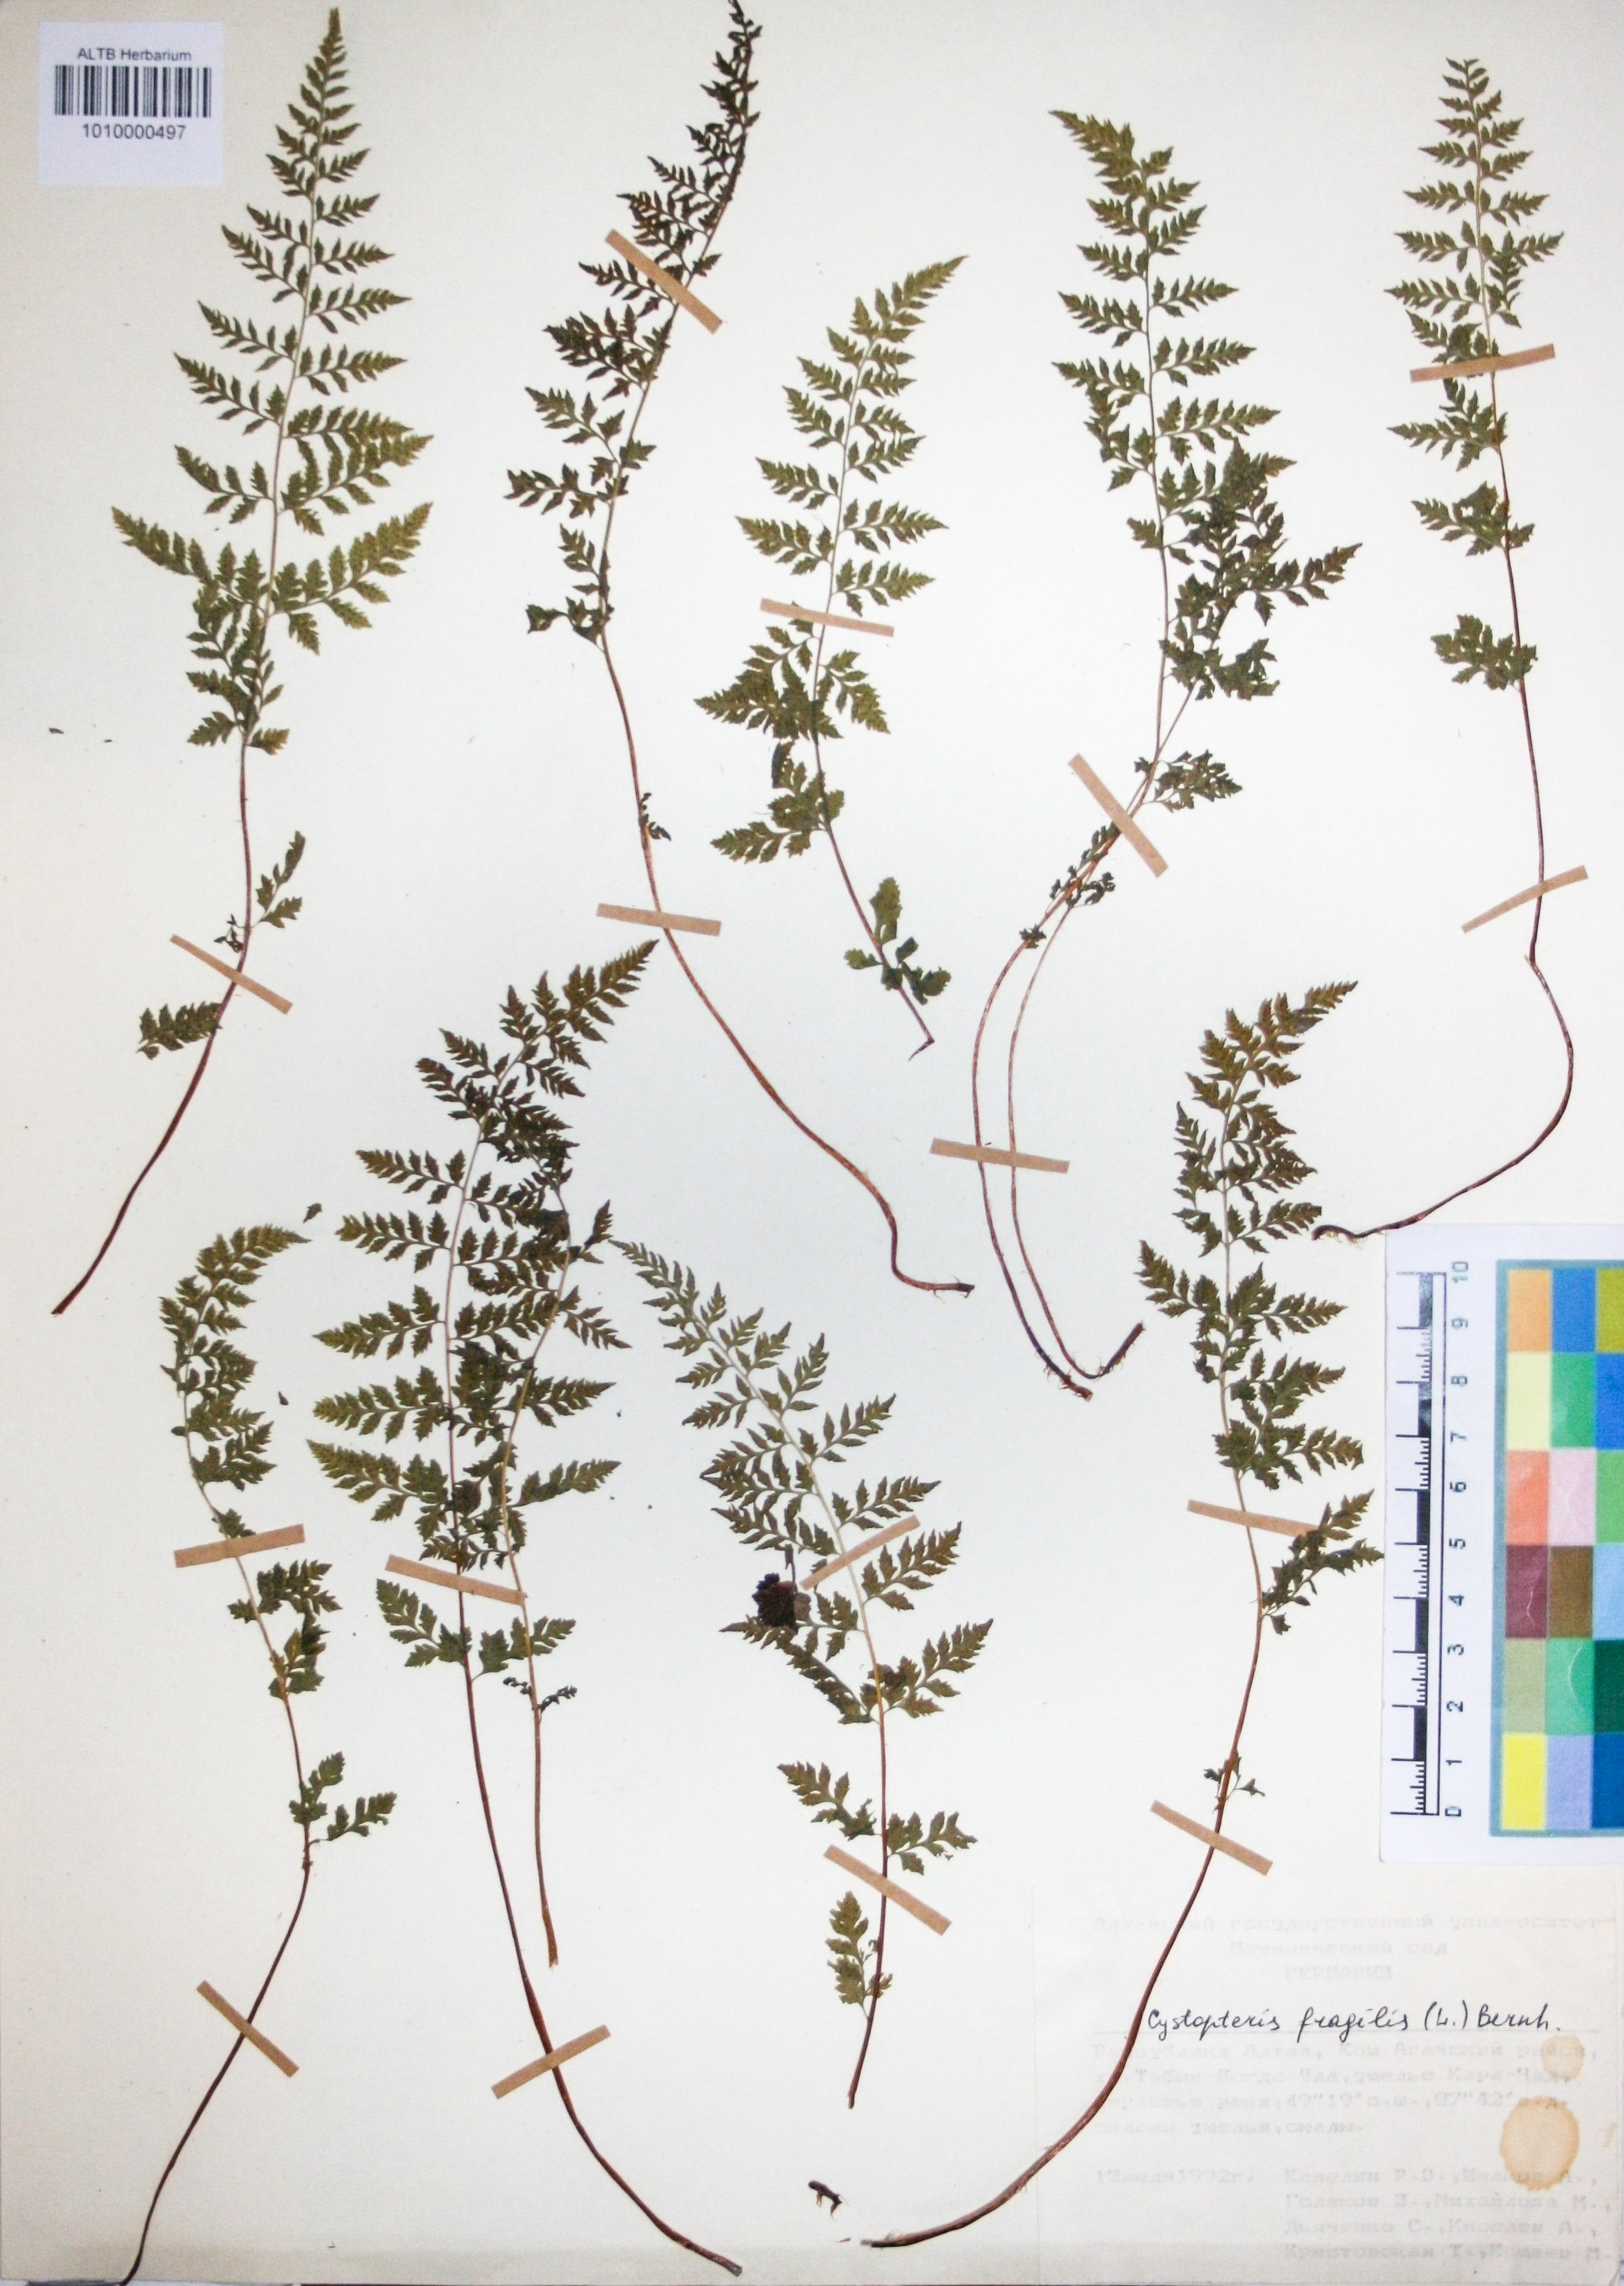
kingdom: Plantae
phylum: Tracheophyta
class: Polypodiopsida
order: Polypodiales
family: Cystopteridaceae
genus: Cystopteris
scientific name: Cystopteris fragilis
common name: Brittle bladder fern
